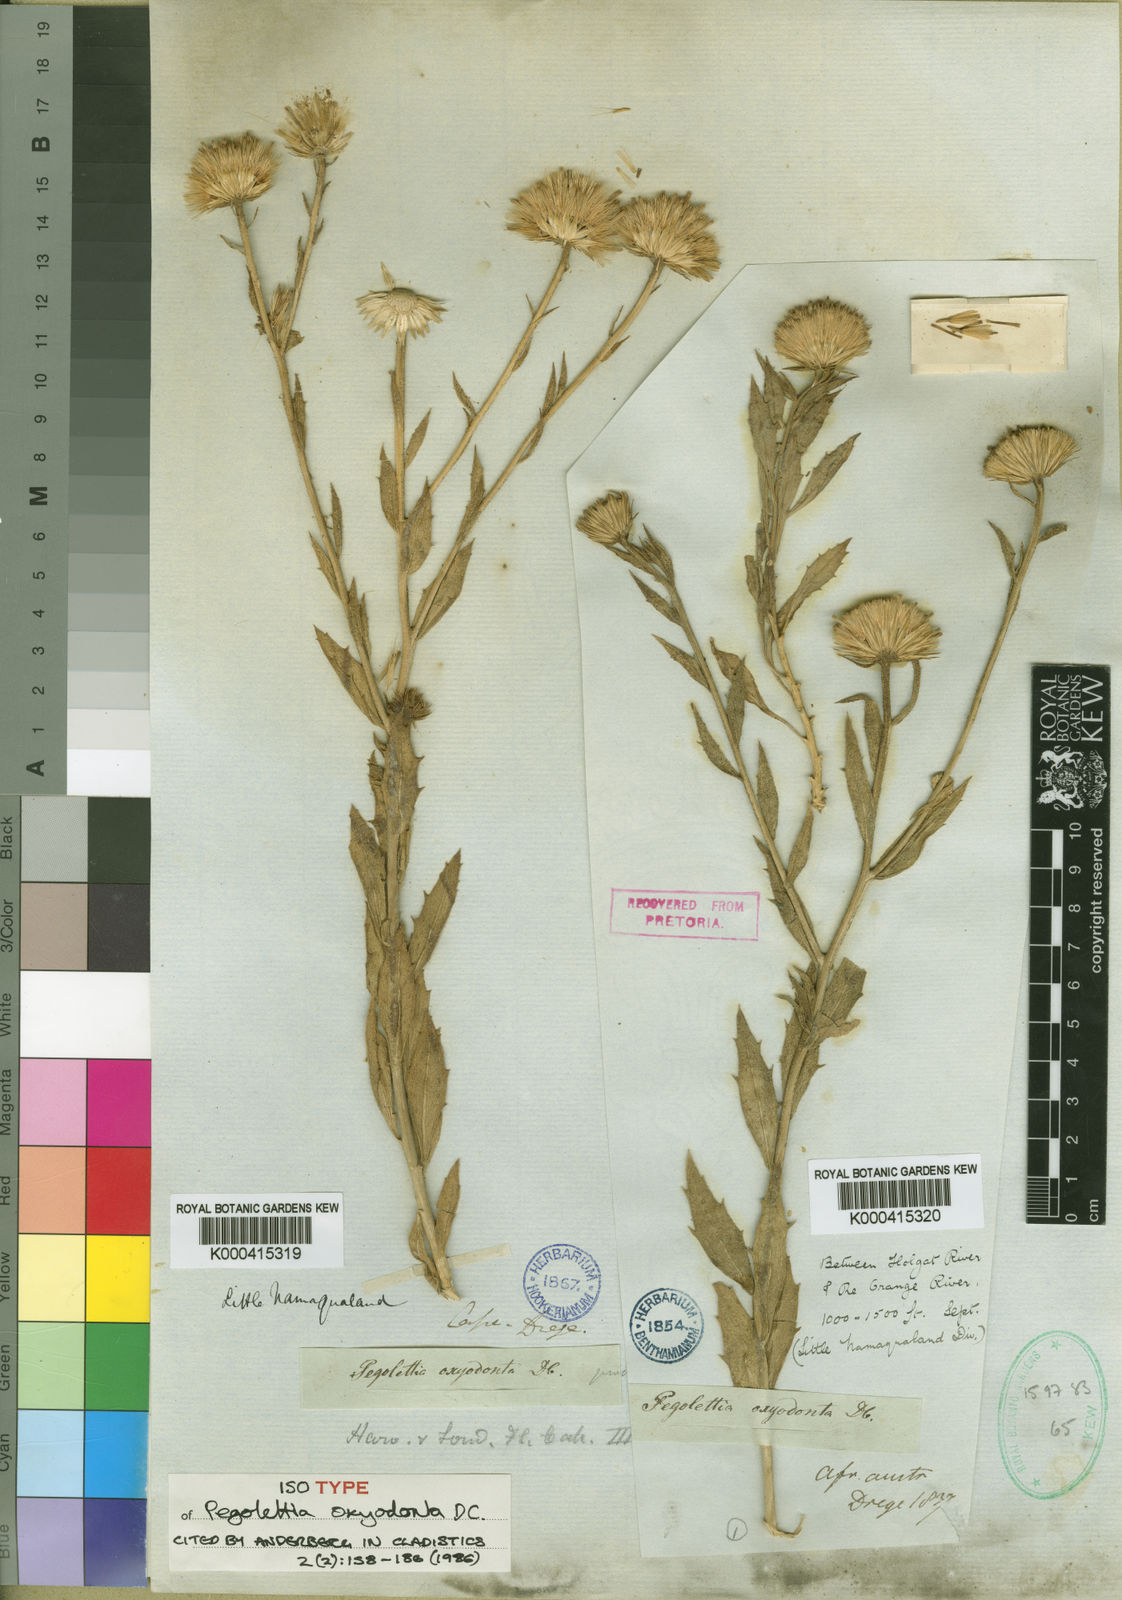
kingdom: Plantae
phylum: Tracheophyta
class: Magnoliopsida
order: Asterales
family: Asteraceae
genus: Pegolettia
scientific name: Pegolettia oxyodonta
